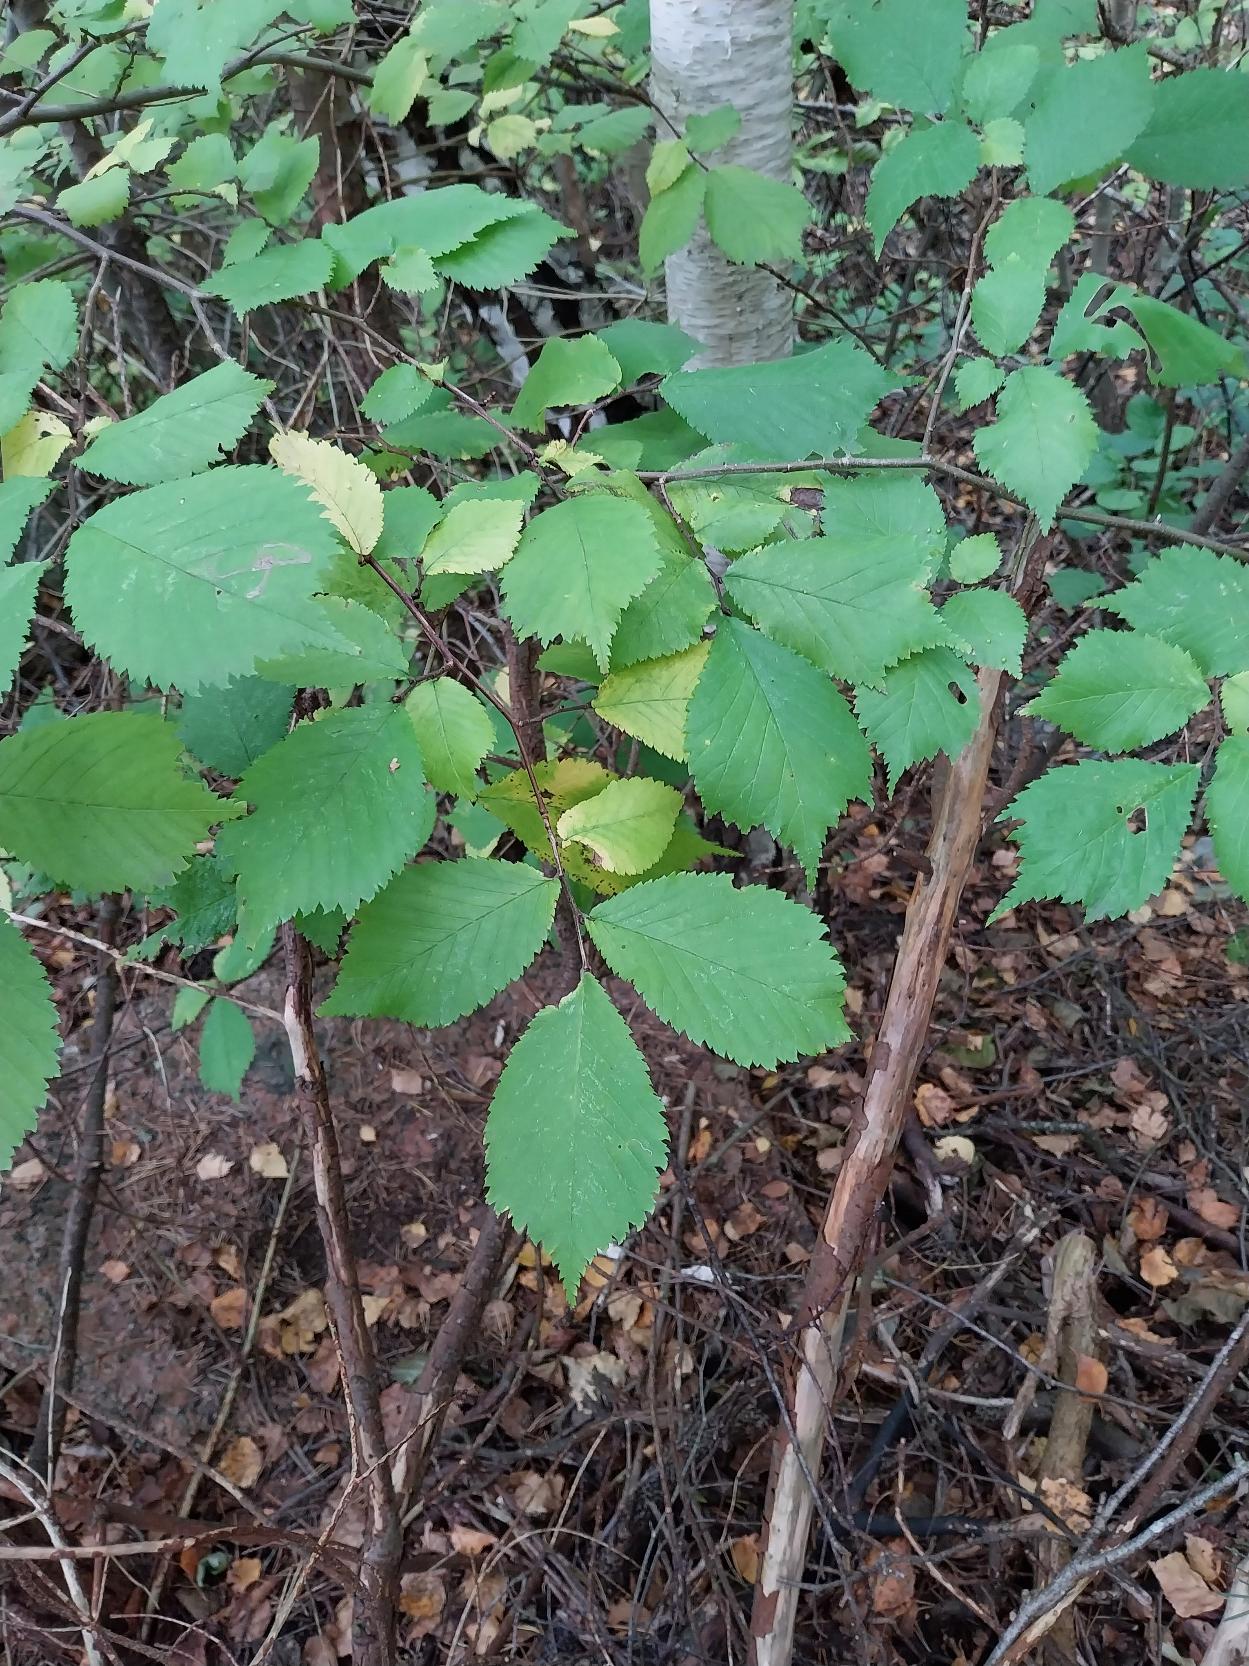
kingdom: Plantae
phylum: Tracheophyta
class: Magnoliopsida
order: Rosales
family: Ulmaceae
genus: Ulmus
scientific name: Ulmus glabra
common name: Skov-elm/storbladet elm
